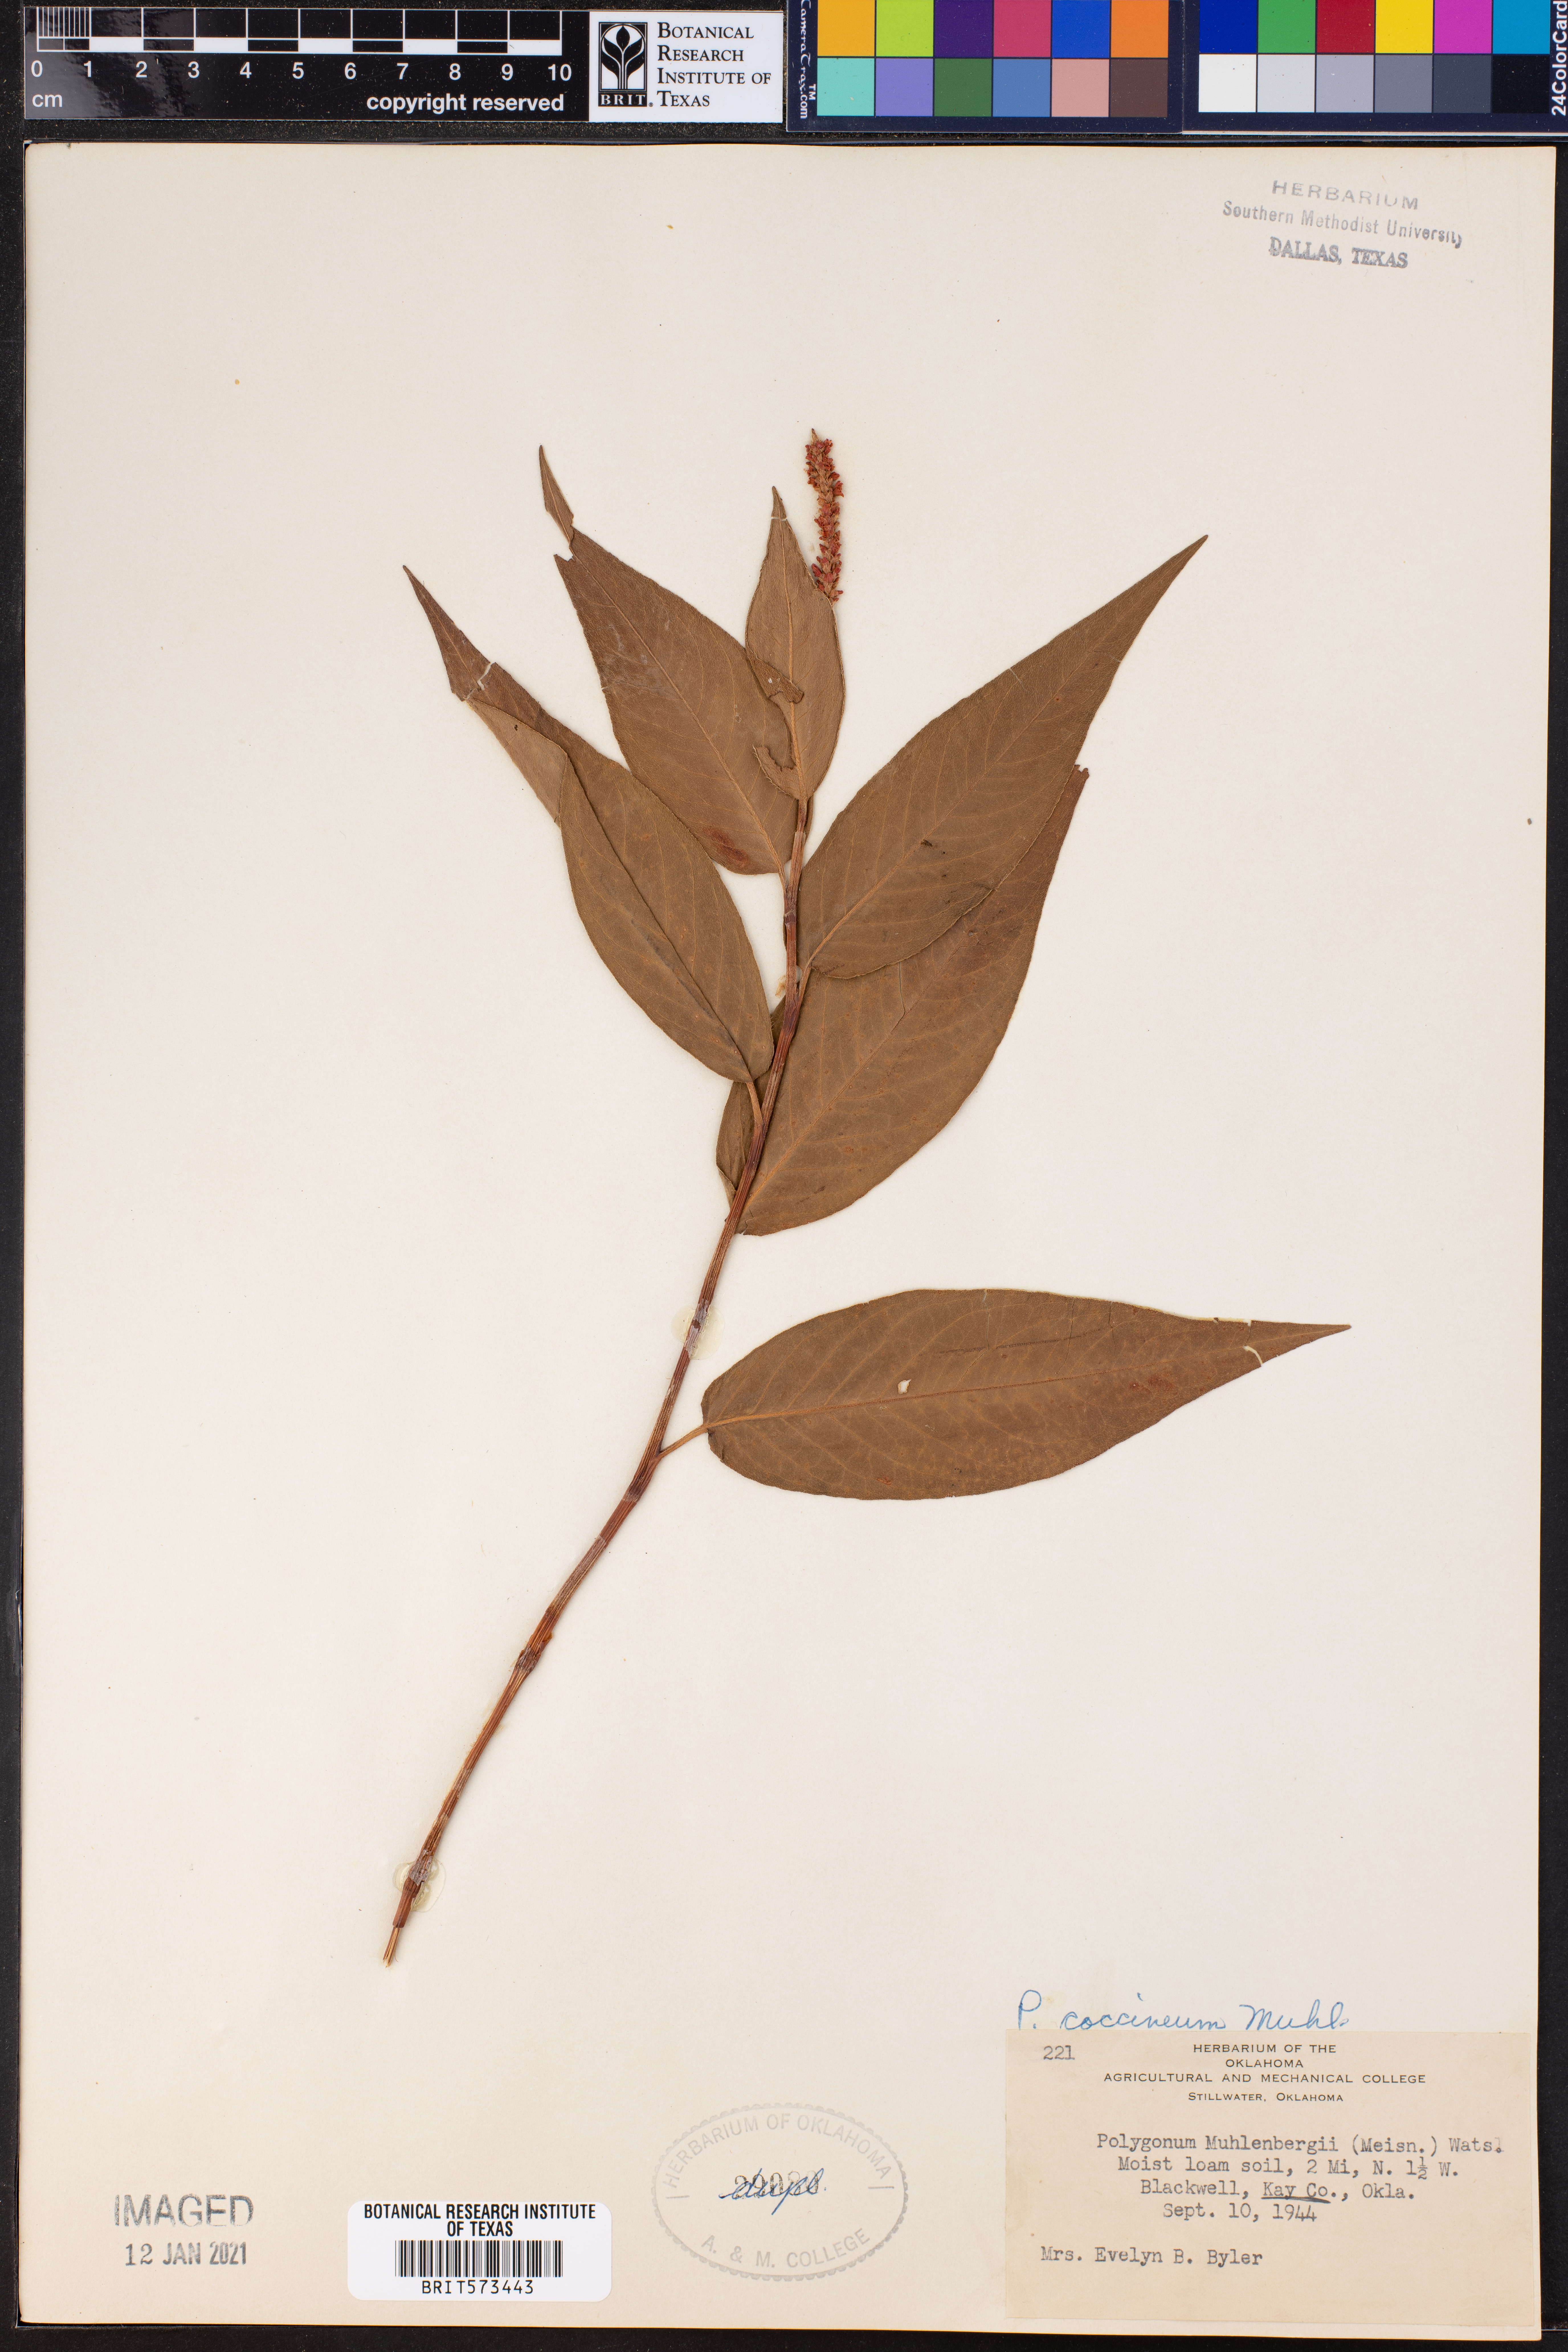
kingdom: Plantae
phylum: Tracheophyta
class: Magnoliopsida
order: Caryophyllales
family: Polygonaceae
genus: Persicaria
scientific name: Persicaria amphibia
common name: Amphibious bistort
